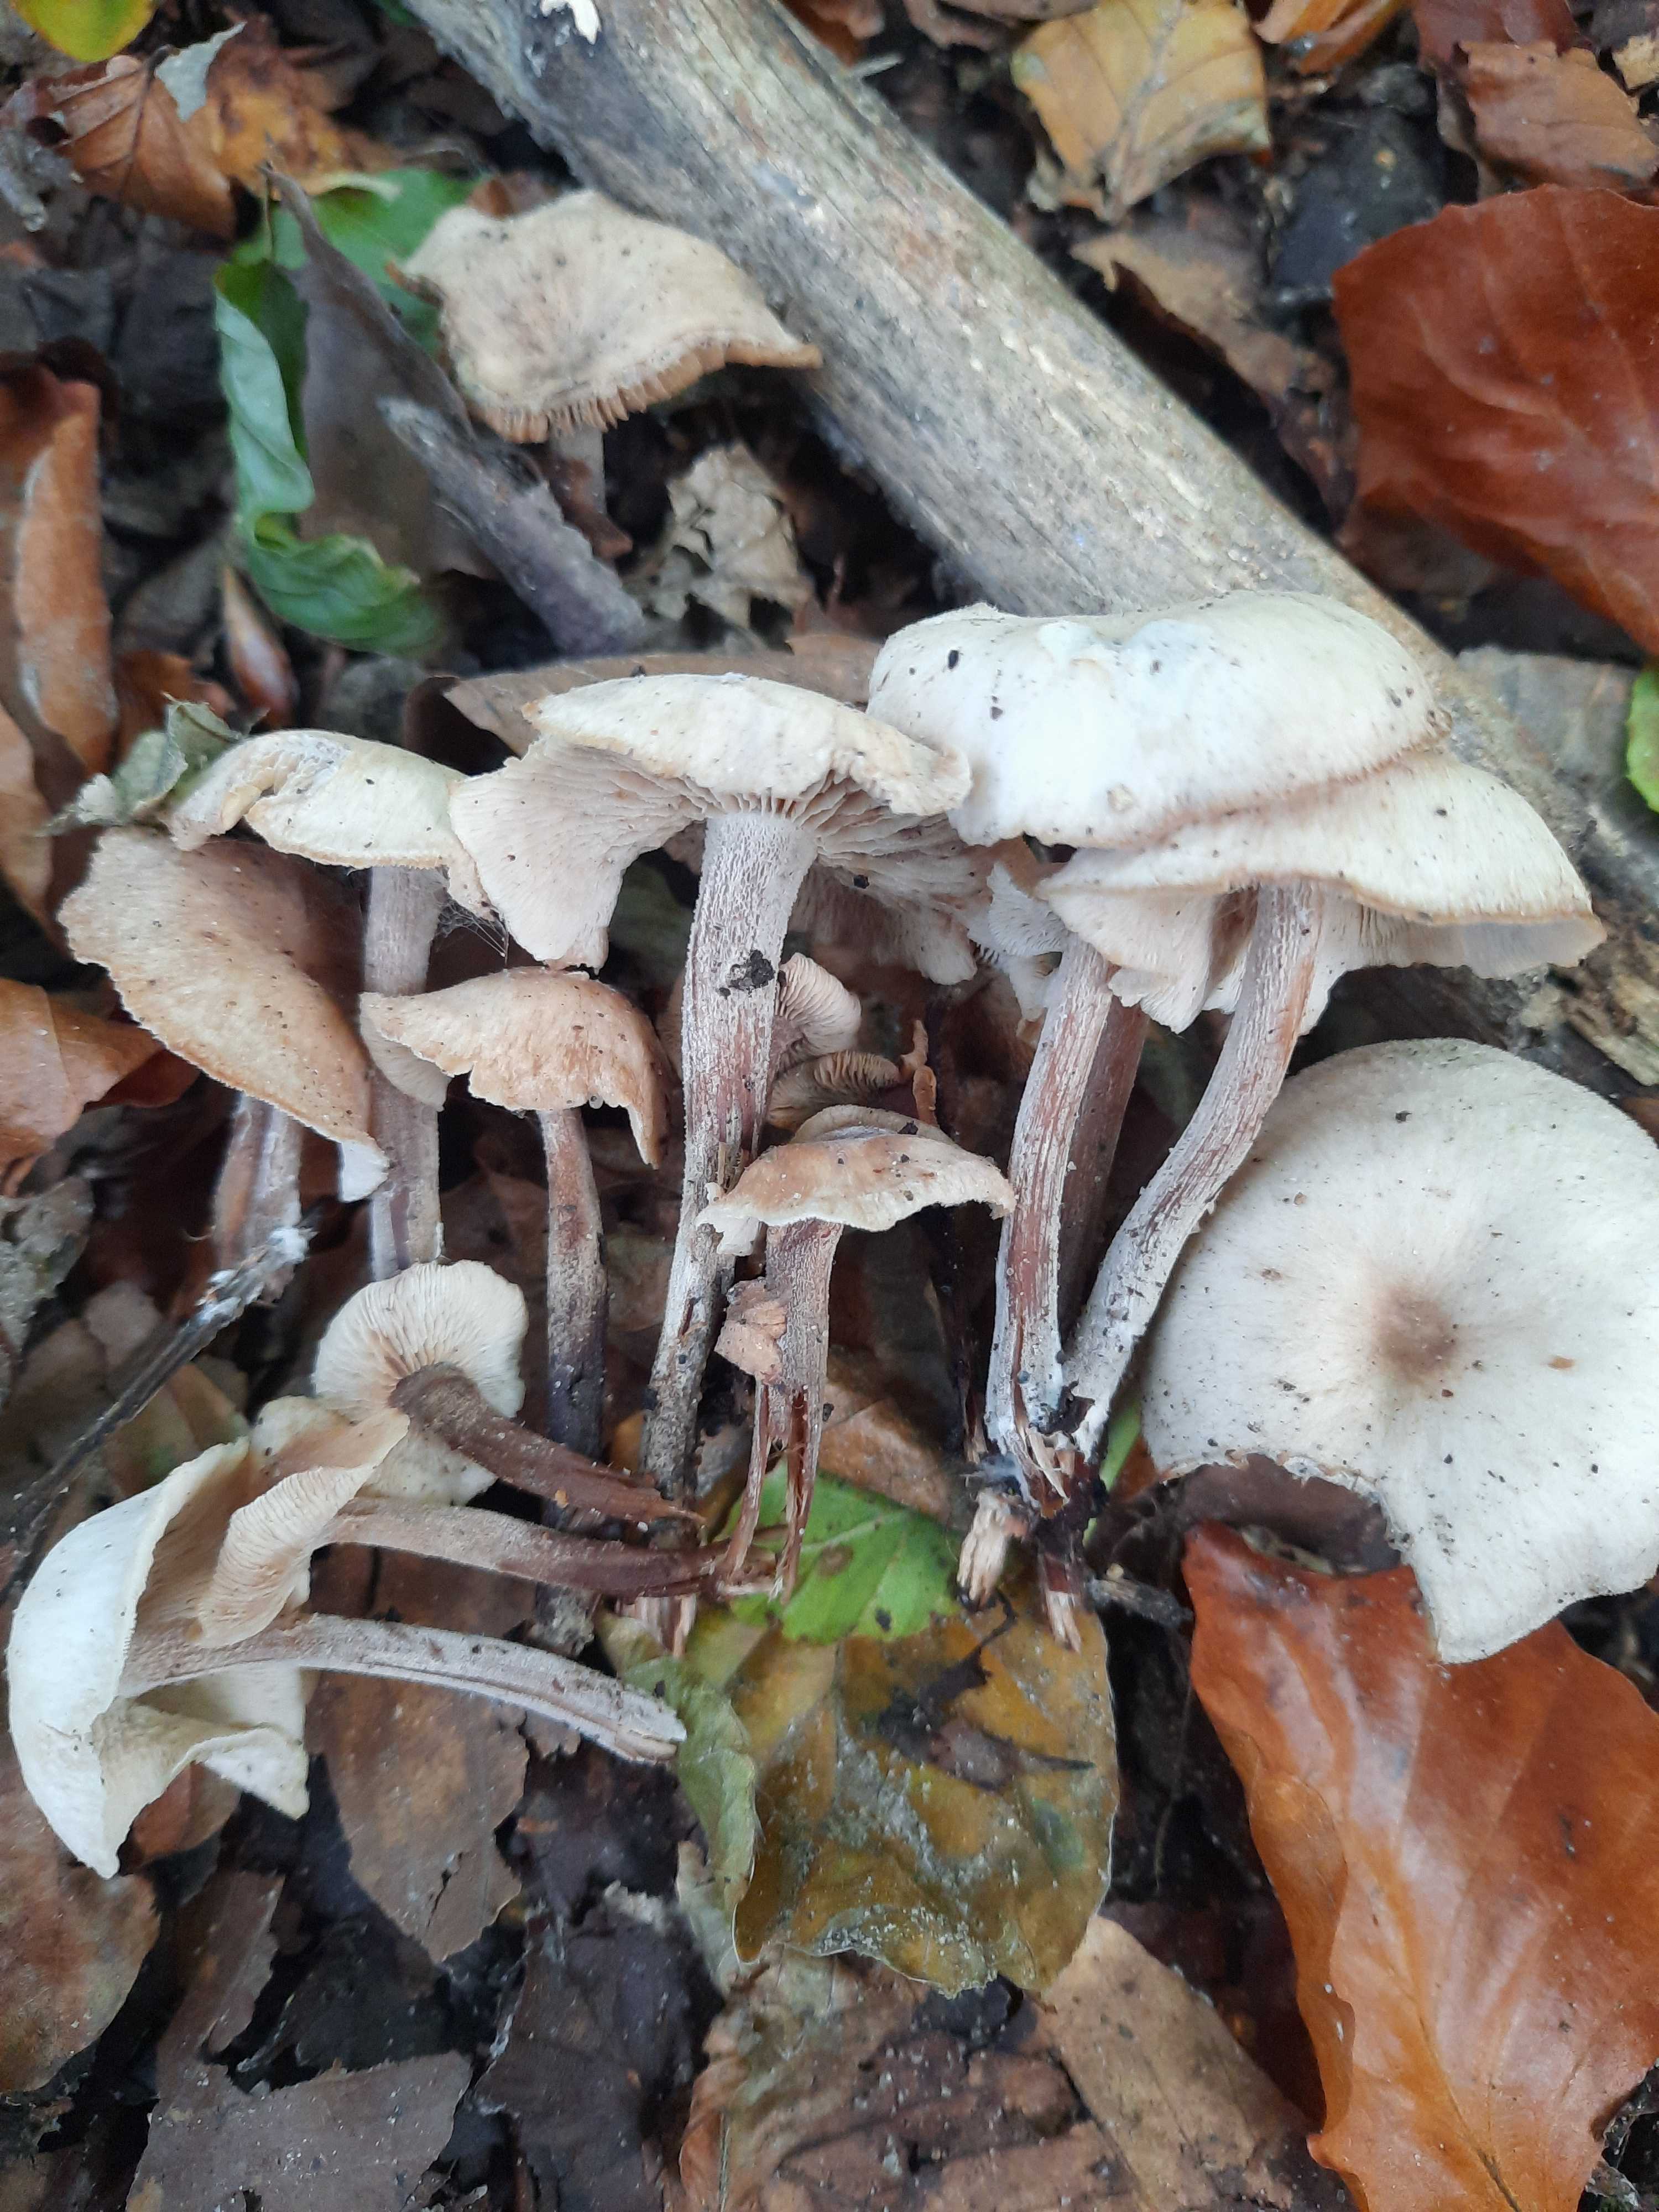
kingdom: Fungi
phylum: Basidiomycota
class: Agaricomycetes
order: Agaricales
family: Omphalotaceae
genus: Collybiopsis
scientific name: Collybiopsis confluens
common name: knippe-fladhat
